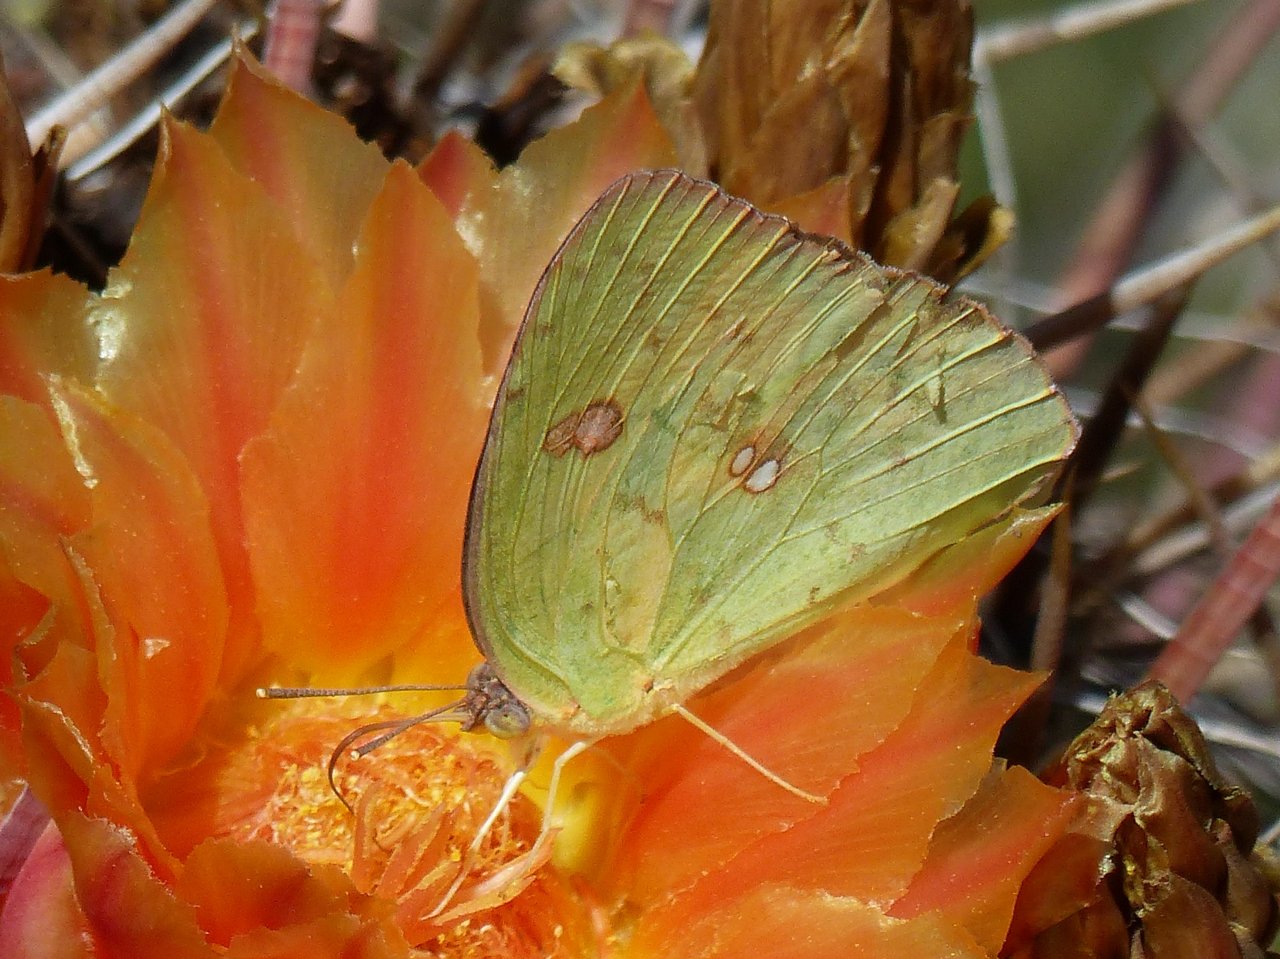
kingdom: Animalia
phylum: Arthropoda
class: Insecta
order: Lepidoptera
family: Pieridae
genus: Phoebis
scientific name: Phoebis sennae
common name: Cloudless Sulphur
